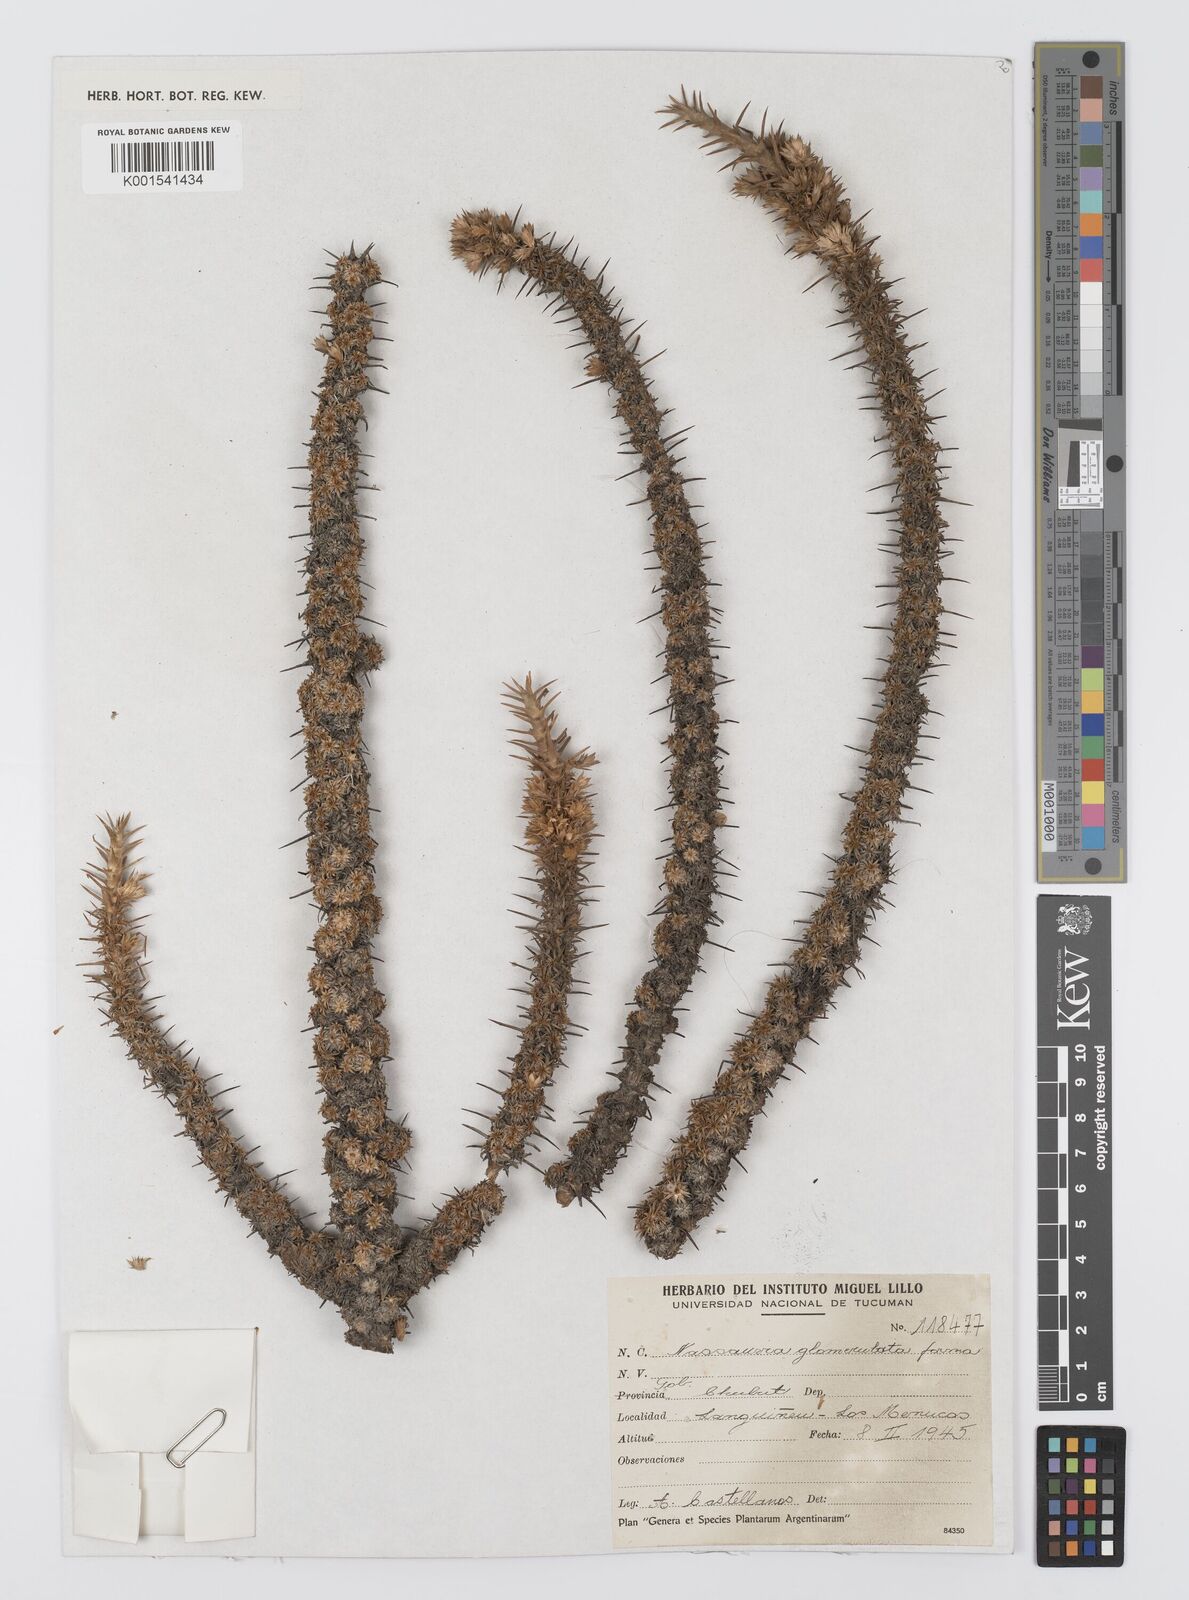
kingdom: Plantae
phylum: Tracheophyta
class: Magnoliopsida
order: Asterales
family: Asteraceae
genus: Nassauvia
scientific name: Nassauvia axillaris
